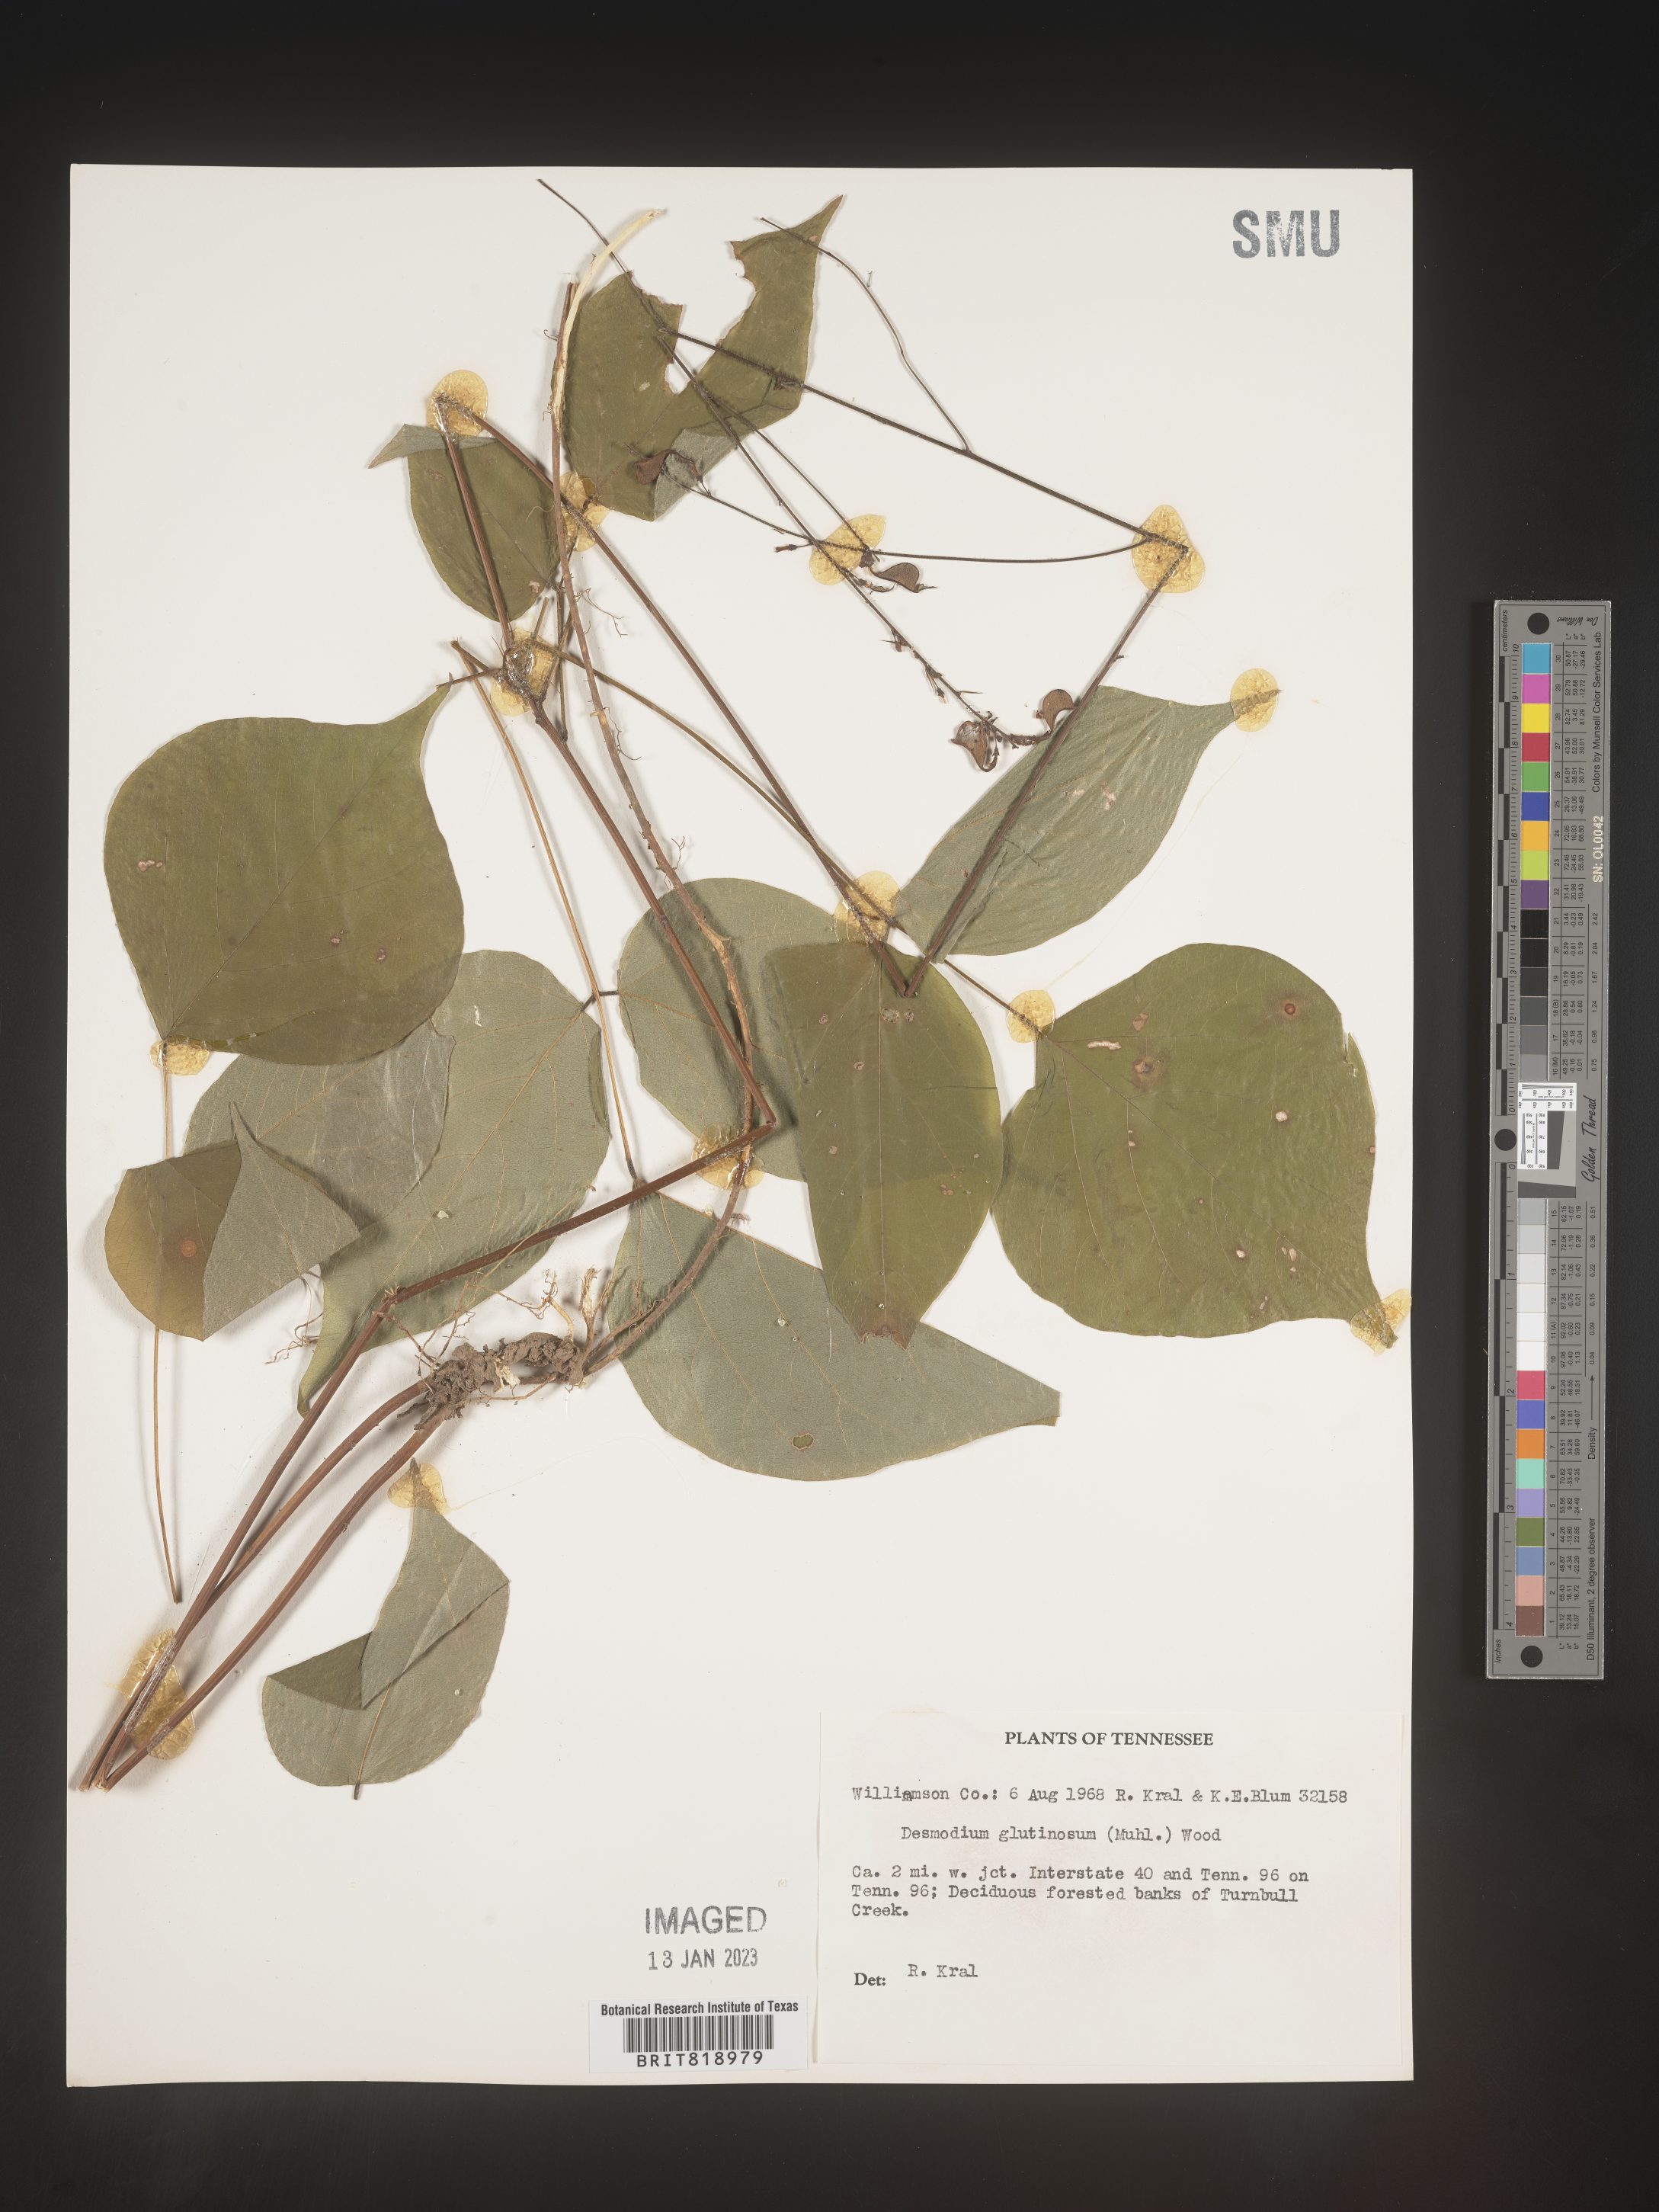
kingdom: Plantae
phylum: Tracheophyta
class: Magnoliopsida
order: Fabales
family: Fabaceae
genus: Hylodesmum
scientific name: Hylodesmum glutinosum
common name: Clustered-leaved tick-trefoil
